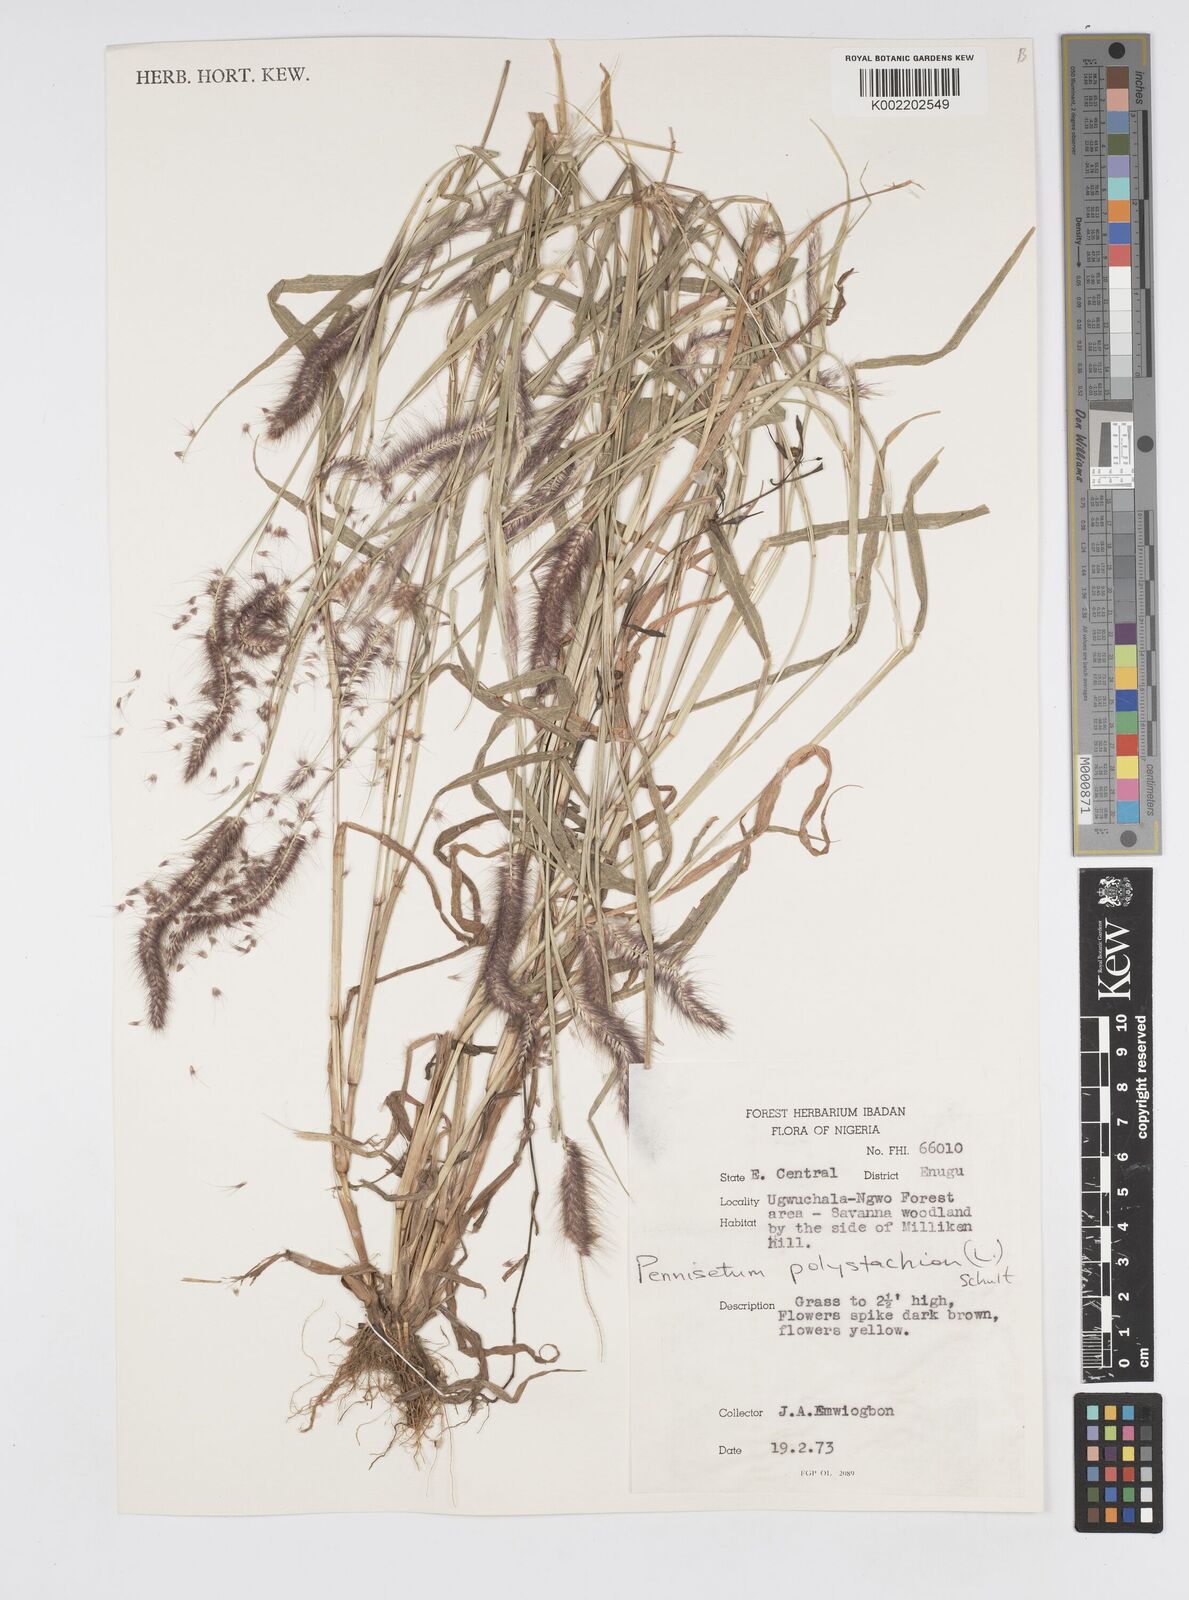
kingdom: Plantae
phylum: Tracheophyta
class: Liliopsida
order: Poales
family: Poaceae
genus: Setaria
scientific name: Setaria parviflora
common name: Knotroot bristle-grass
